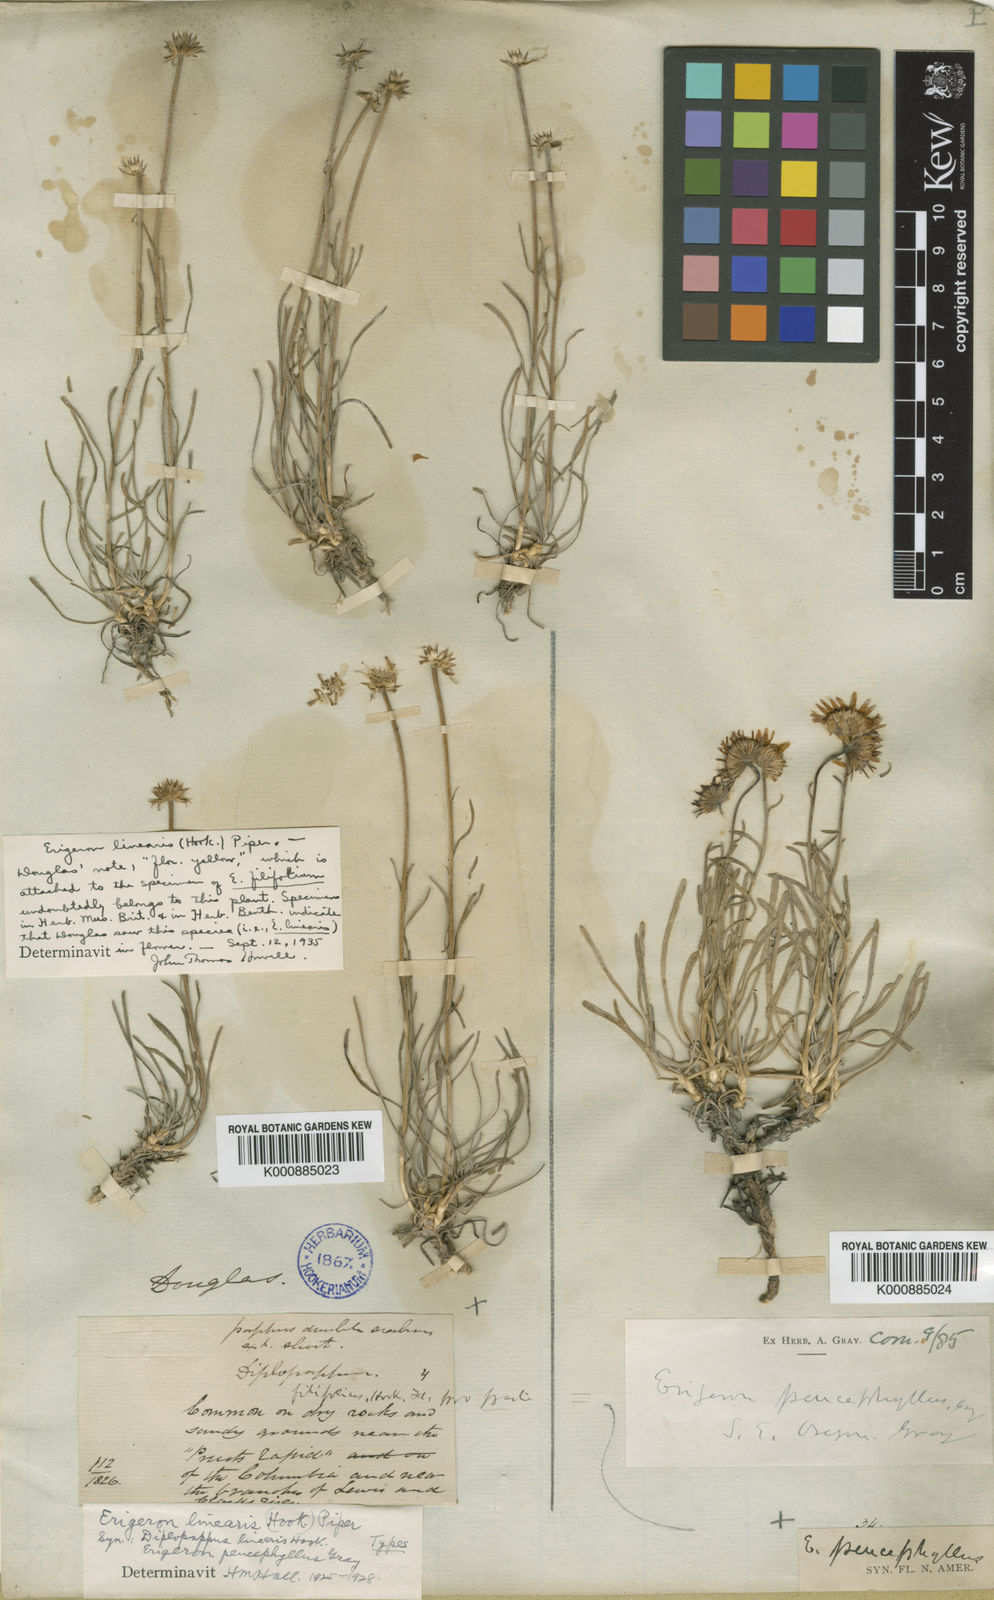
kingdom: Plantae
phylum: Tracheophyta
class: Magnoliopsida
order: Asterales
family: Asteraceae
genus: Erigeron
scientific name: Erigeron
